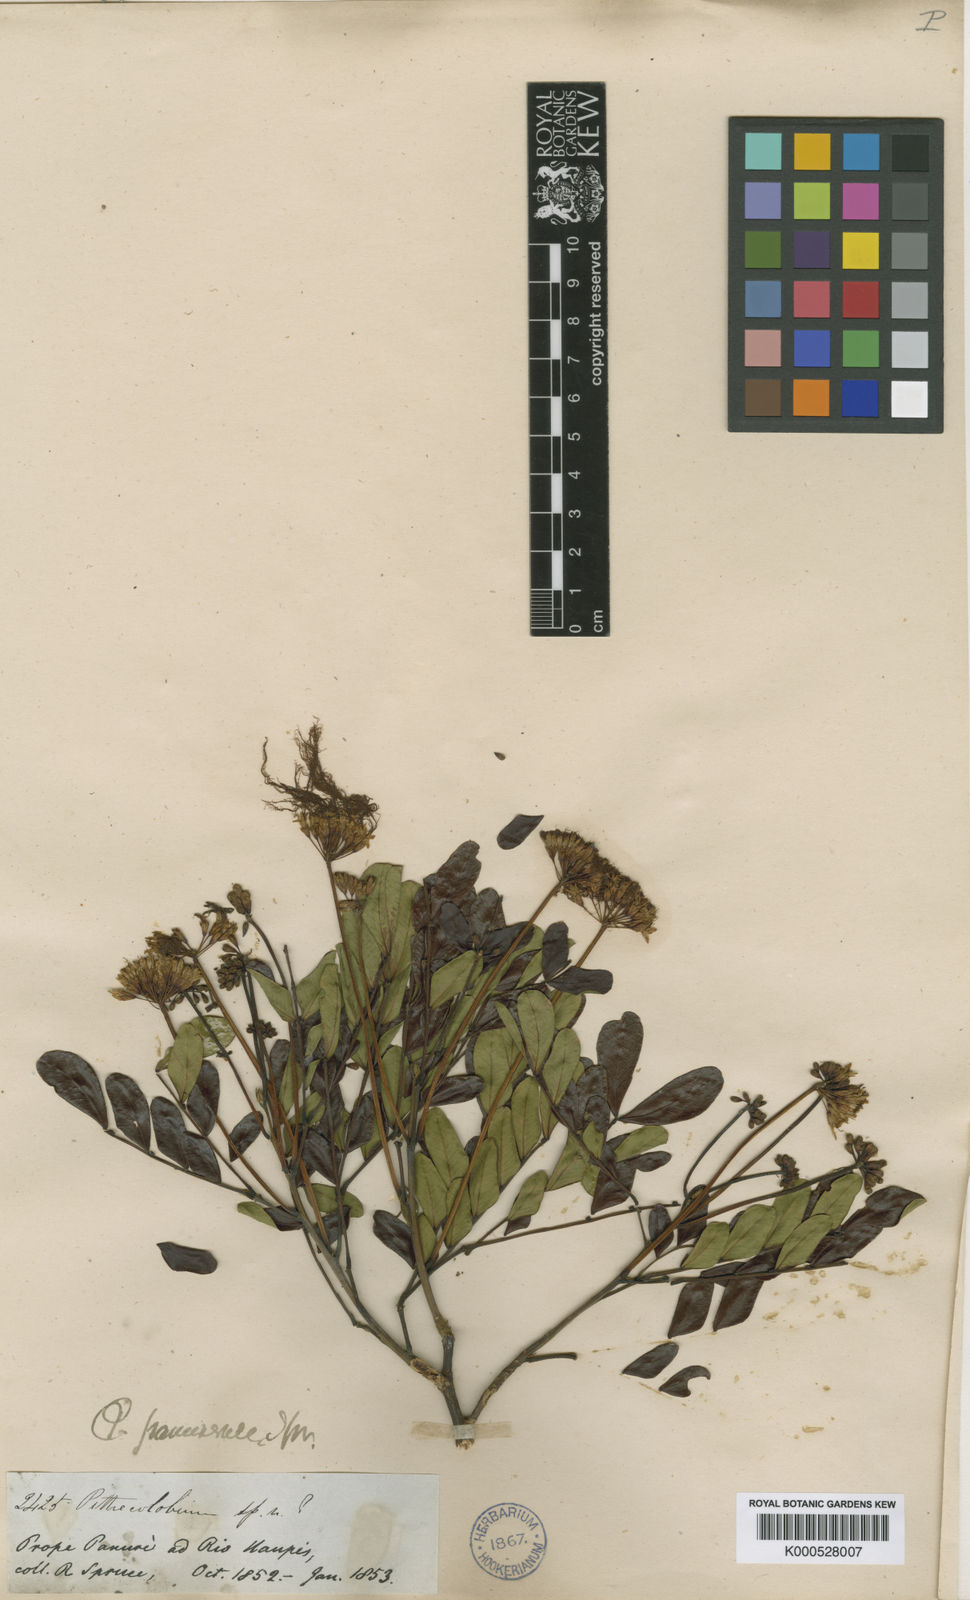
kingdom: Plantae
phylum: Tracheophyta
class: Magnoliopsida
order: Fabales
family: Fabaceae
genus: Hydrochorea
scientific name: Hydrochorea marginata
